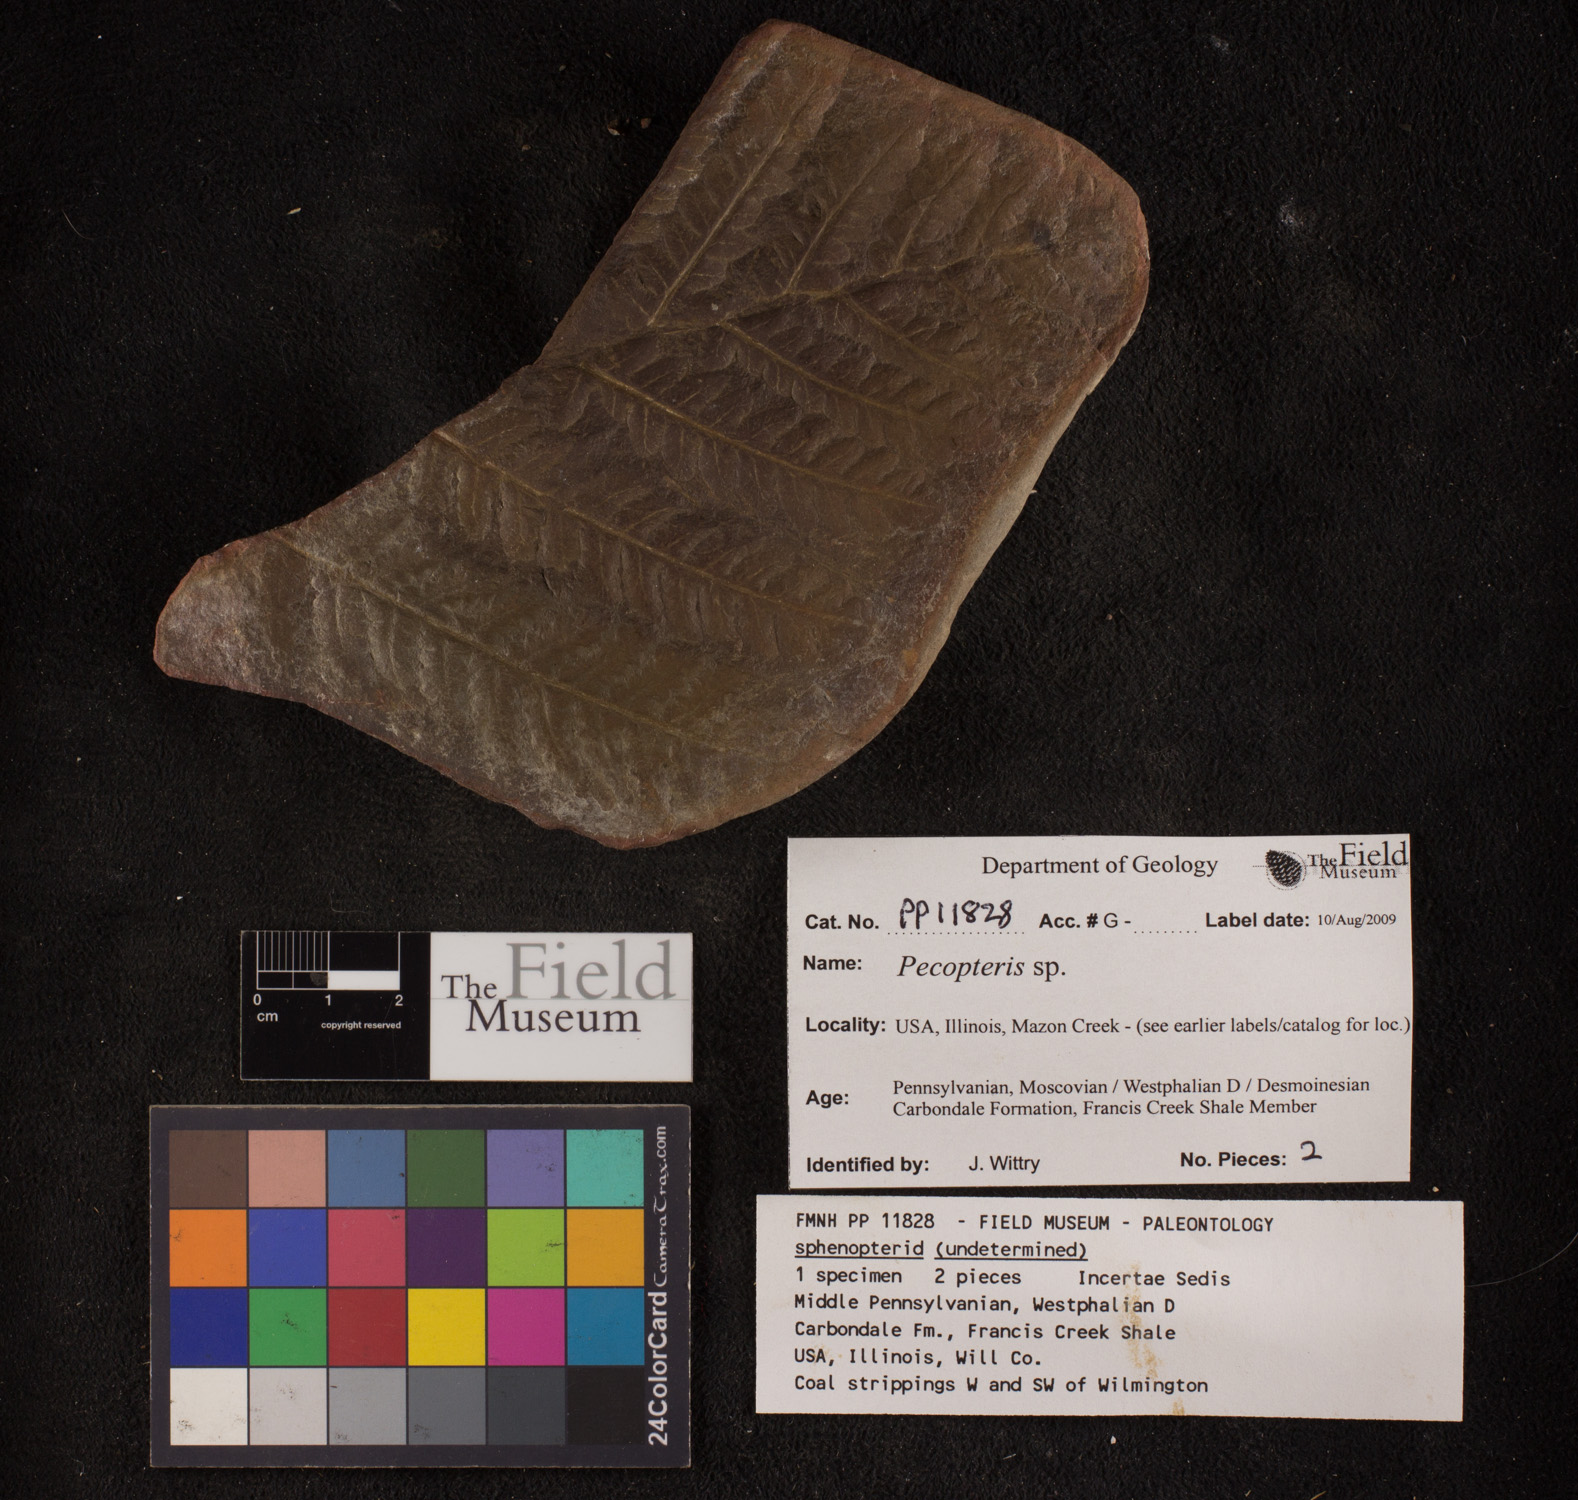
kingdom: Plantae
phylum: Tracheophyta
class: Polypodiopsida
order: Marattiales
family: Asterothecaceae
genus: Pecopteris
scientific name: Pecopteris
